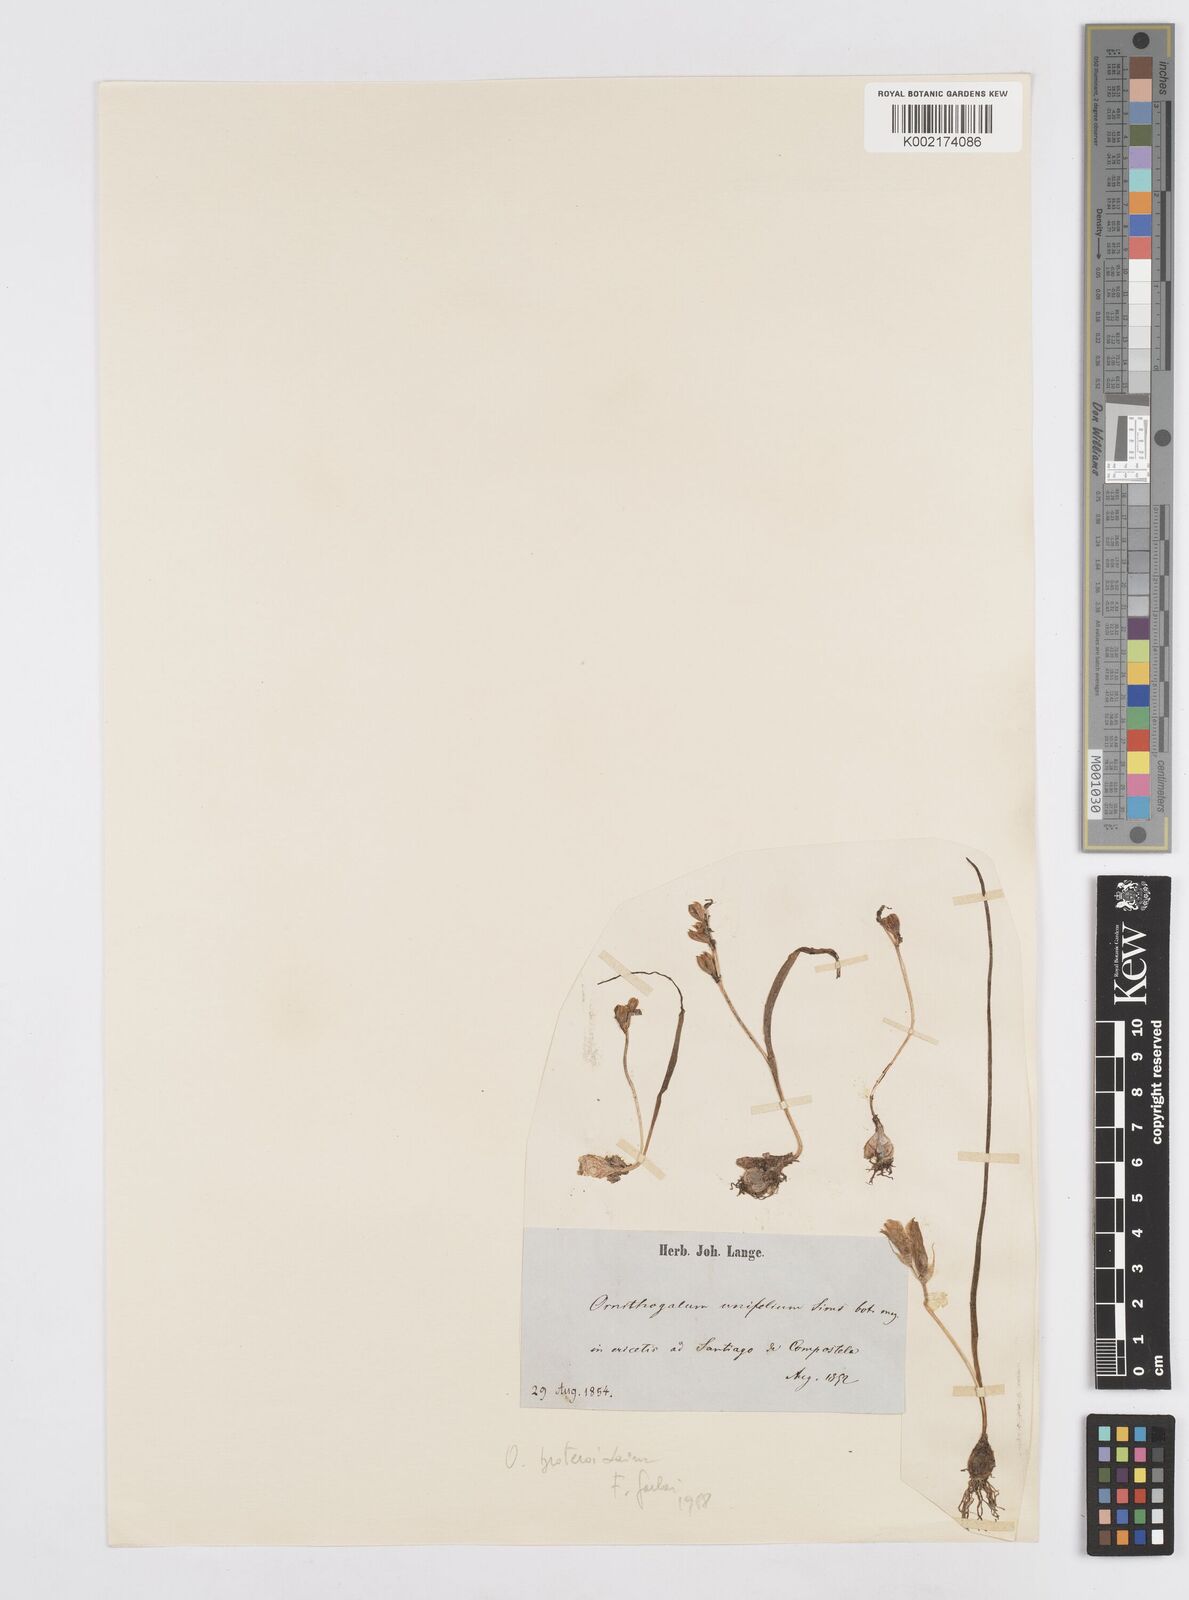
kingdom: Plantae
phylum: Tracheophyta
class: Liliopsida
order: Asparagales
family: Asparagaceae
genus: Ornithogalum
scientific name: Ornithogalum broteroi
